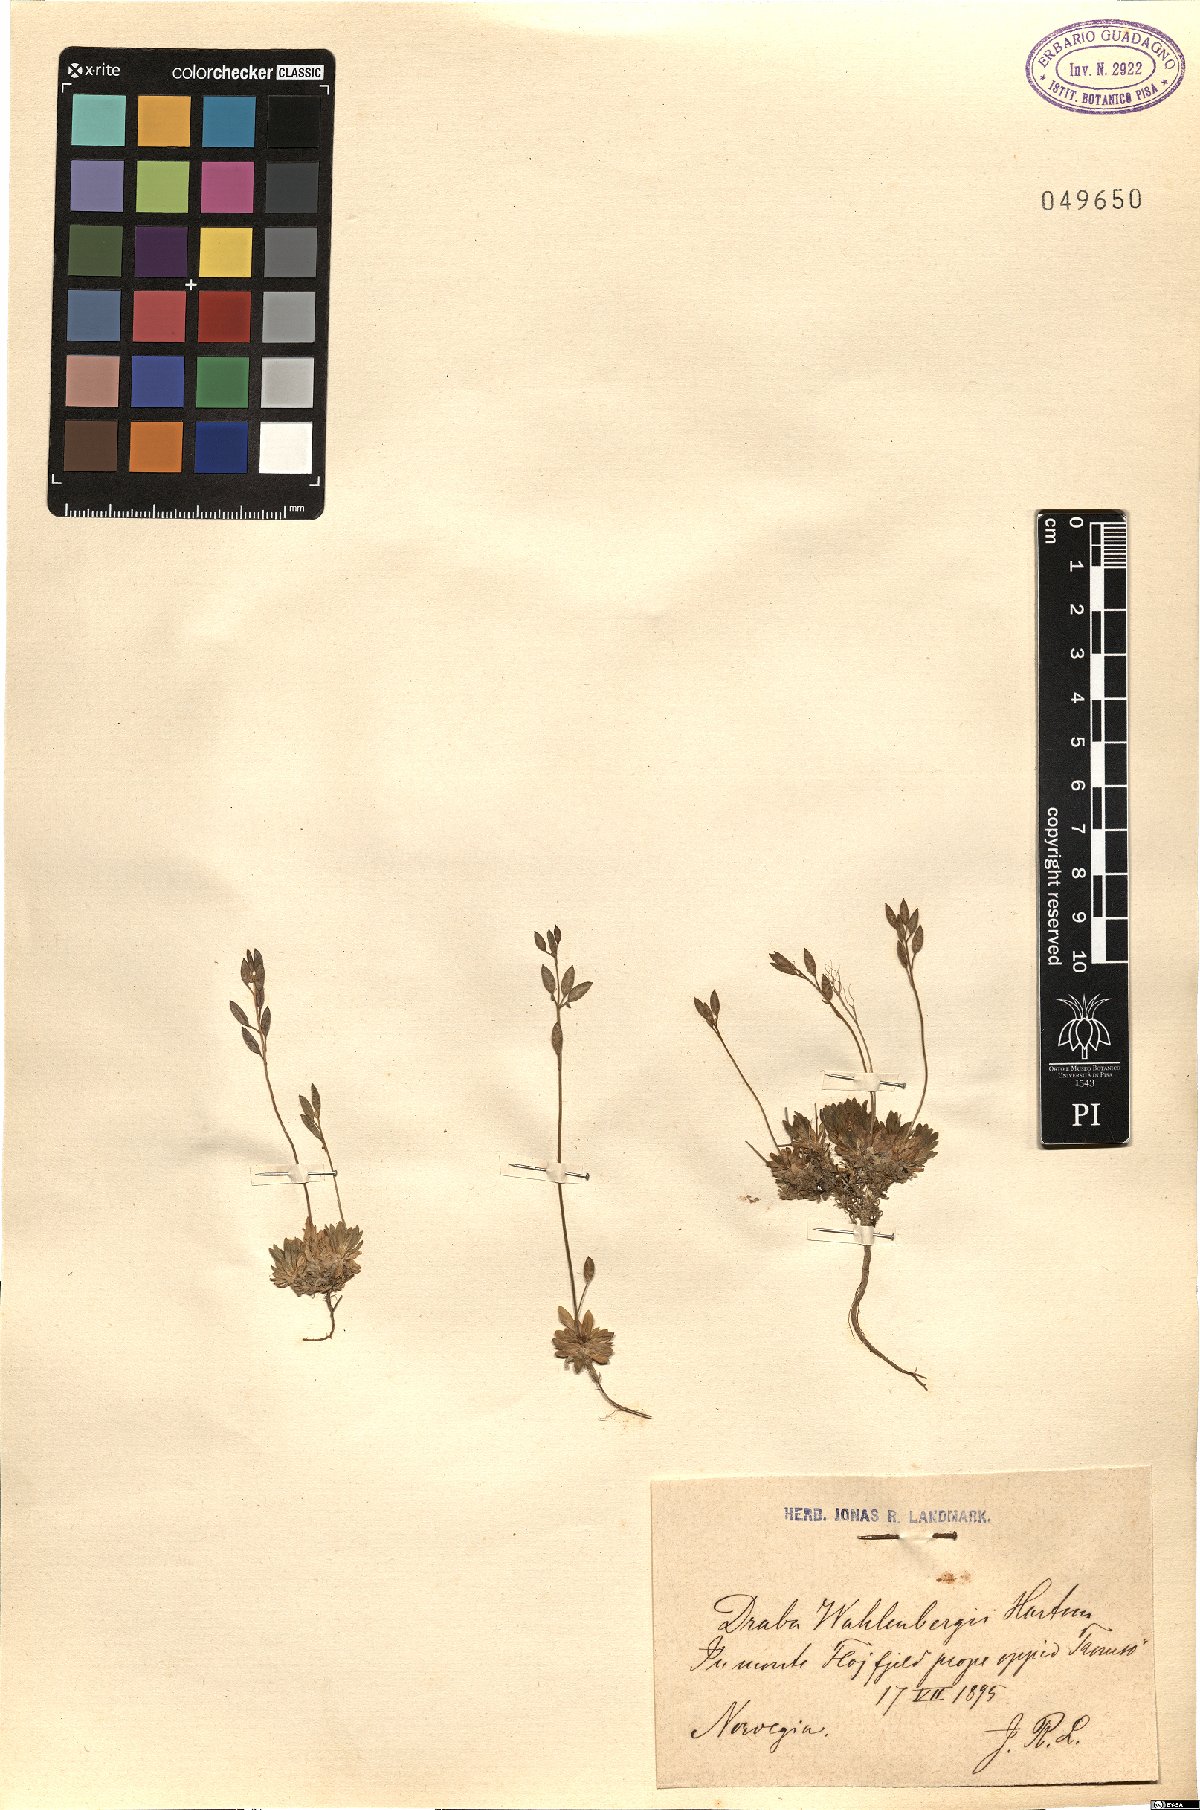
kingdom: Plantae
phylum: Tracheophyta
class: Magnoliopsida
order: Brassicales
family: Brassicaceae
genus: Draba
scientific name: Draba lactea
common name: Milky draba
